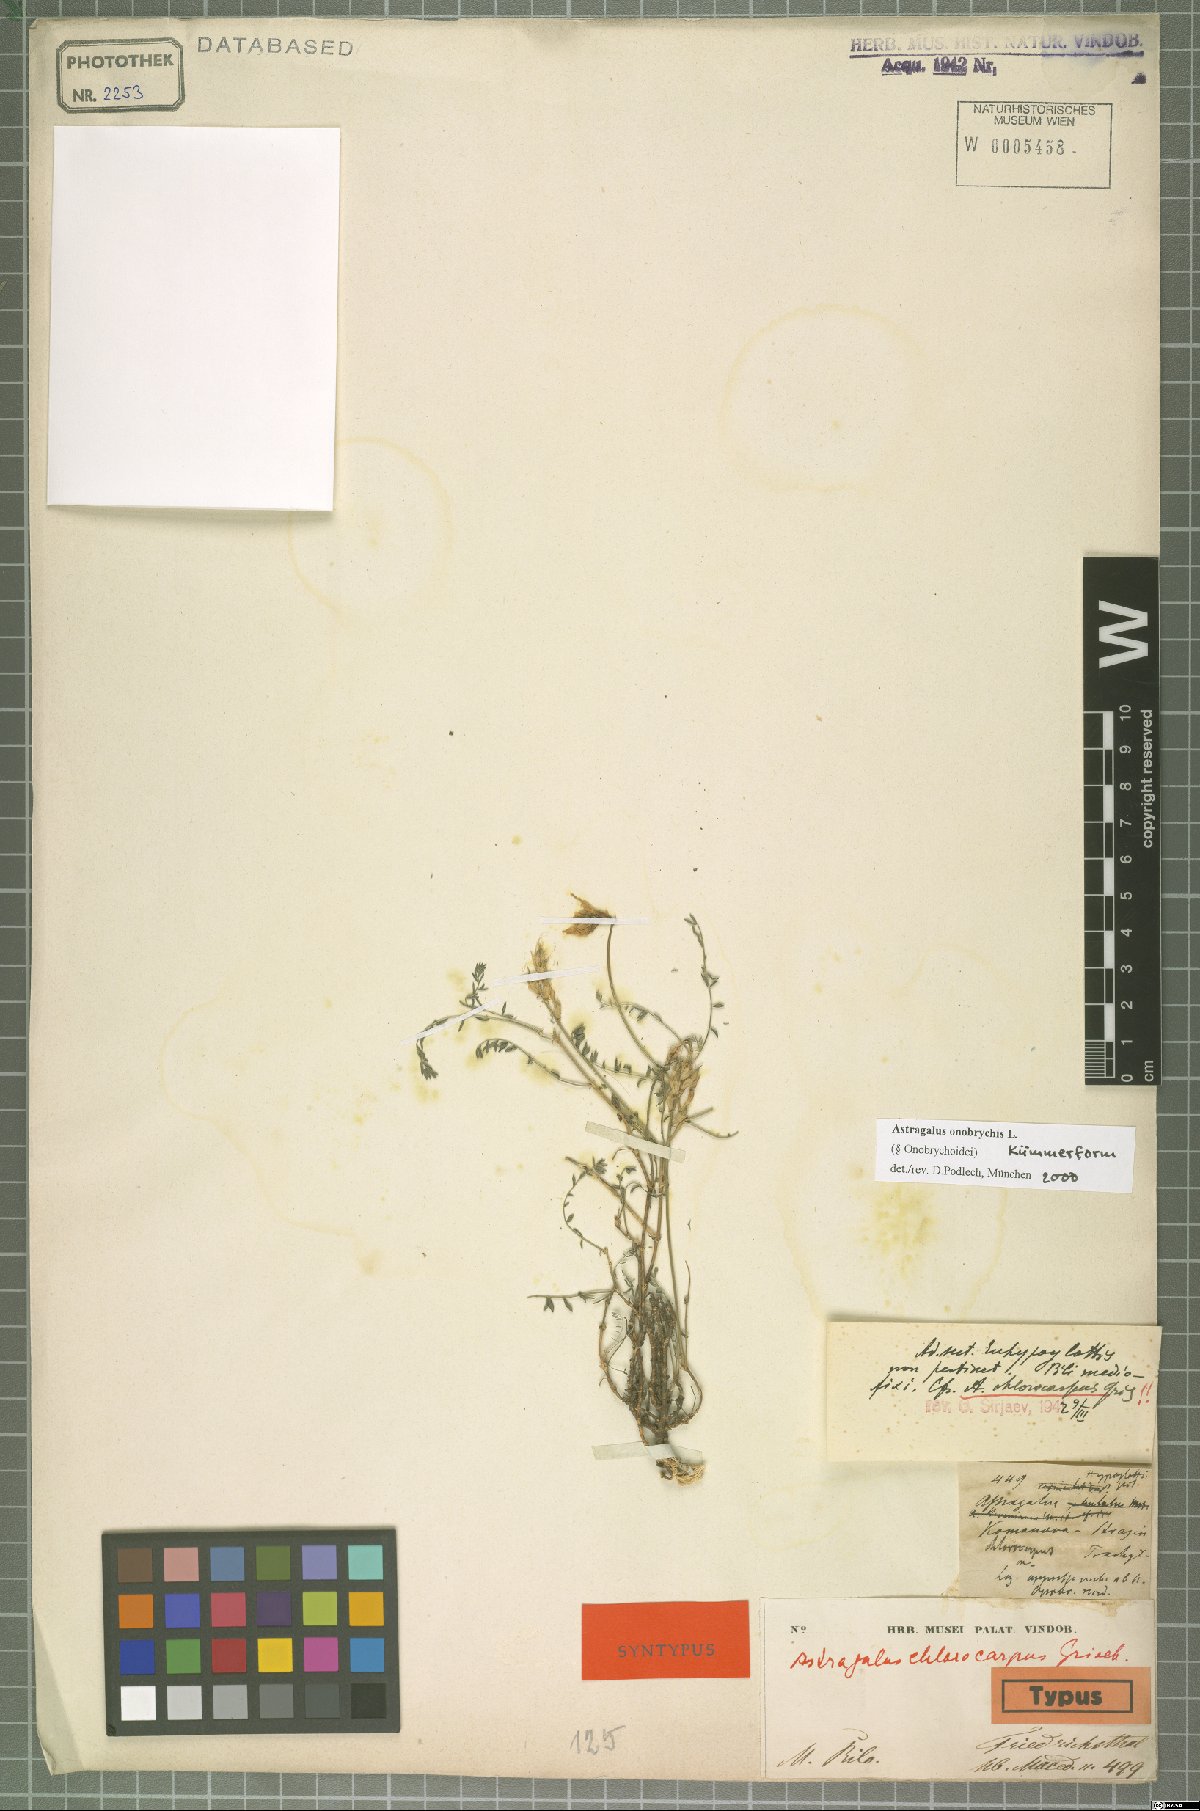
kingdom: Plantae
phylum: Tracheophyta
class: Magnoliopsida
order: Fabales
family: Fabaceae
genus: Astragalus
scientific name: Astragalus onobrychis
